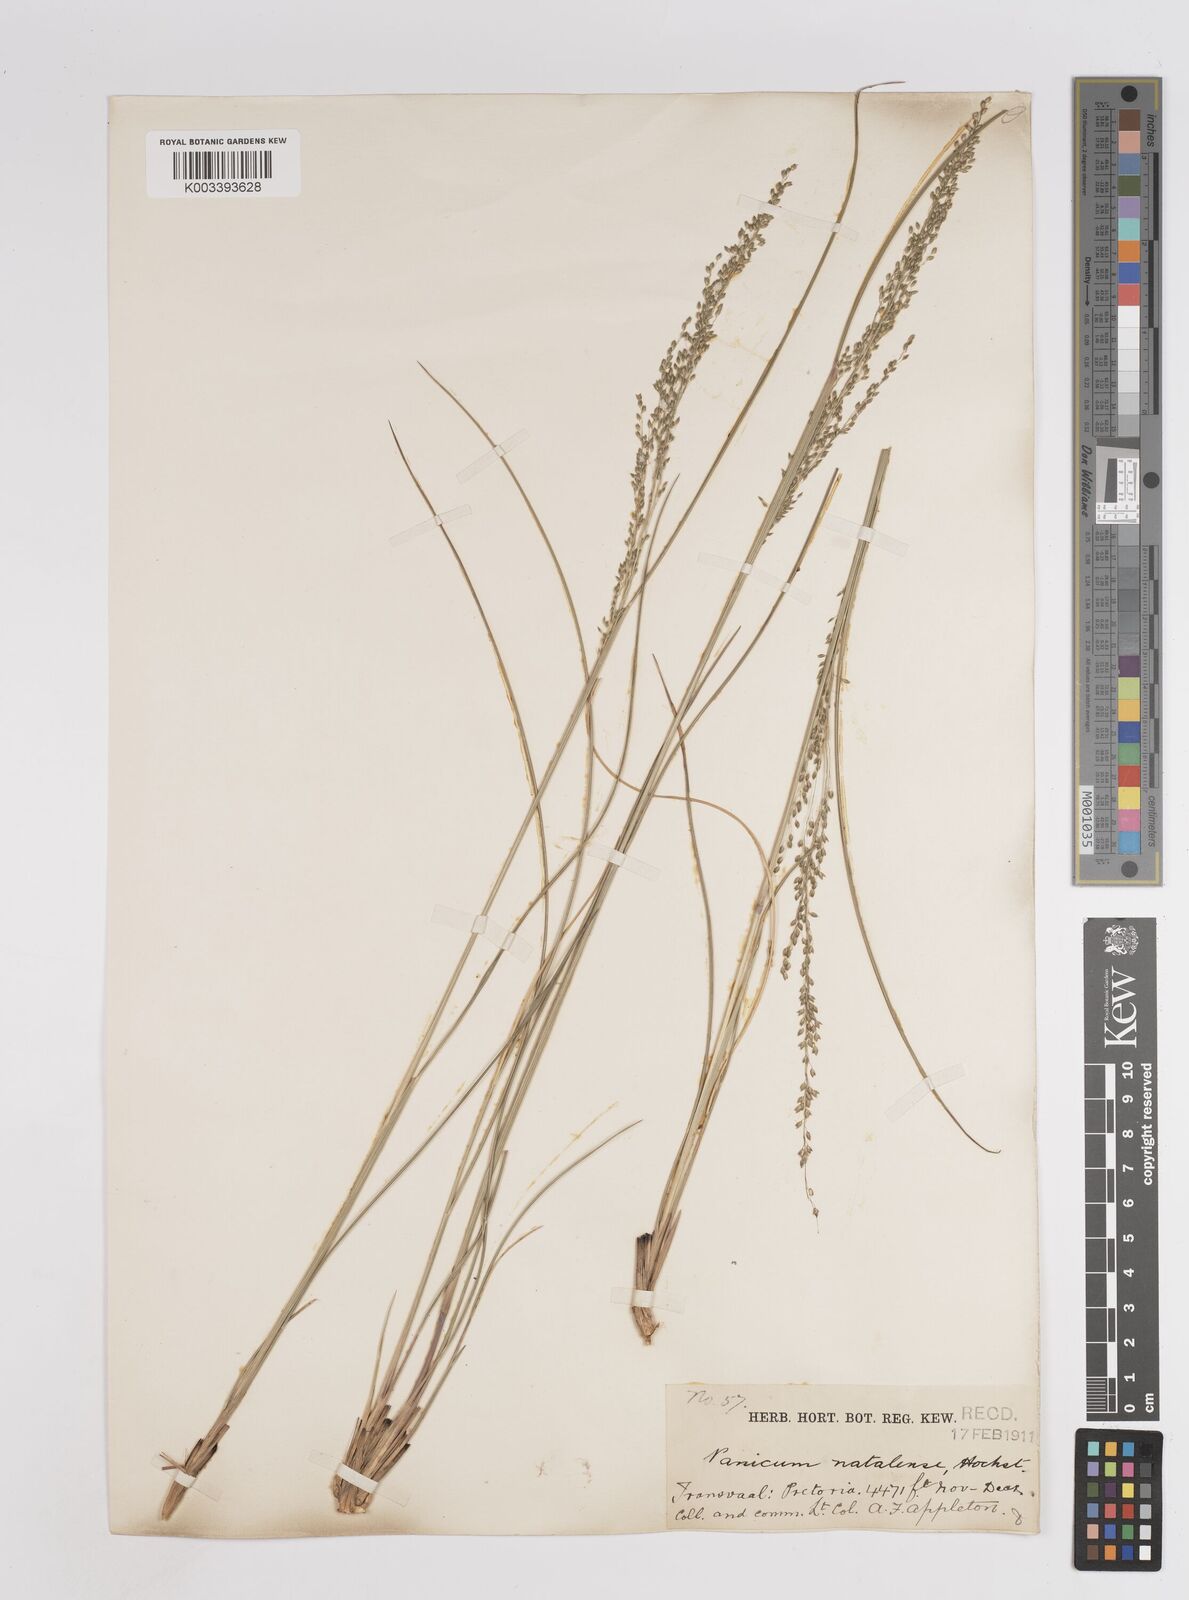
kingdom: Plantae
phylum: Tracheophyta
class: Liliopsida
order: Poales
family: Poaceae
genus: Trichanthecium
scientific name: Trichanthecium natalense
